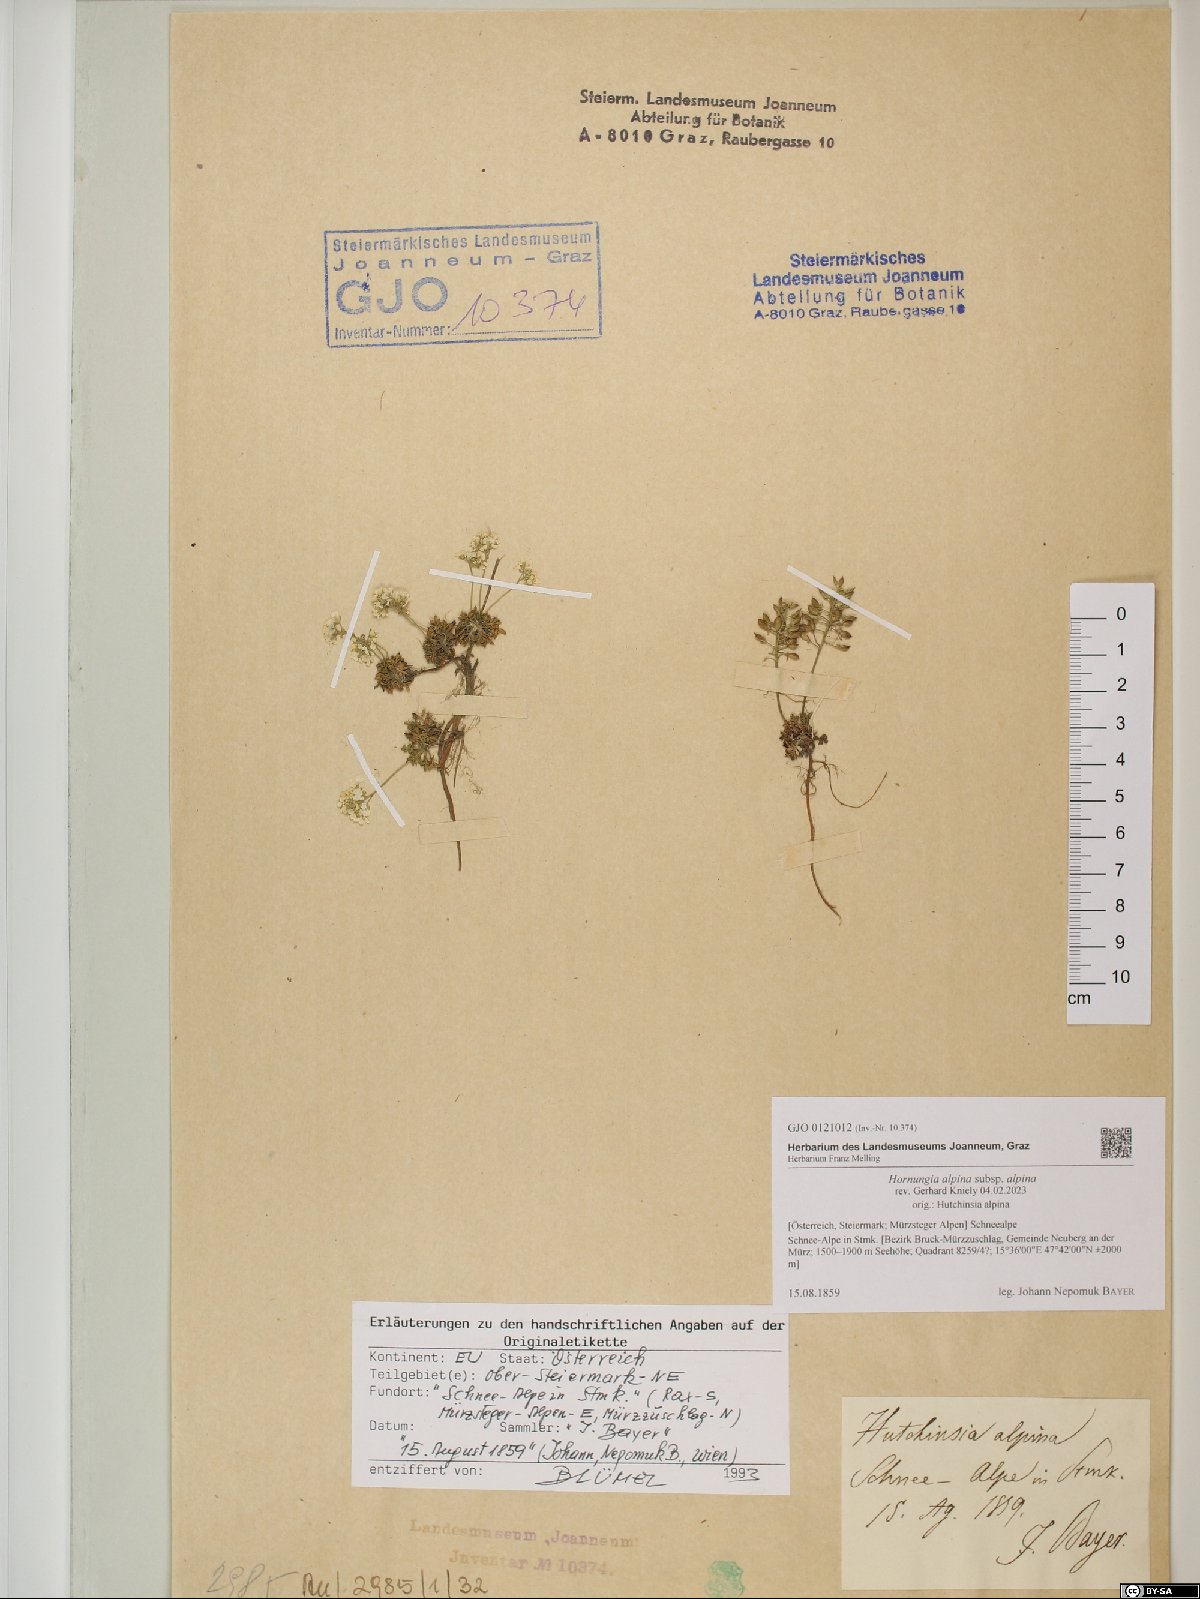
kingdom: Plantae
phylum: Tracheophyta
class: Magnoliopsida
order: Brassicales
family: Brassicaceae
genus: Hornungia
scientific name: Hornungia alpina
